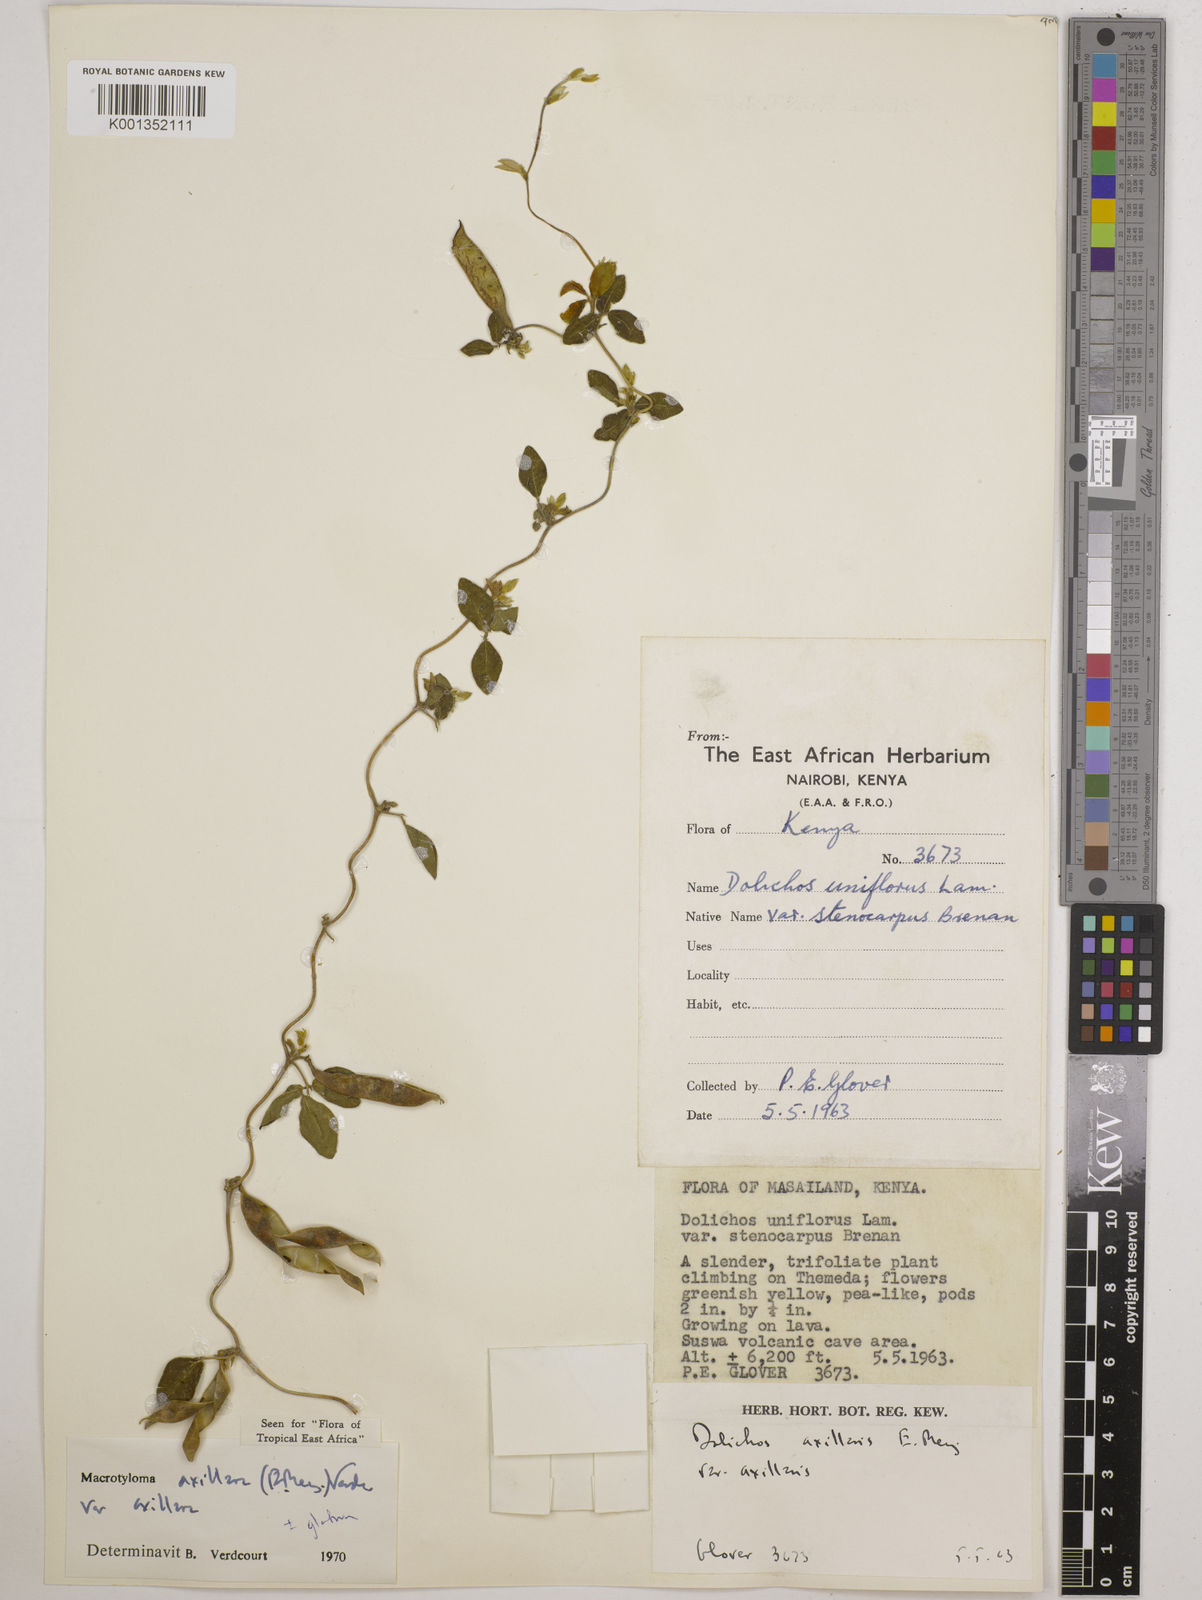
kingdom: Plantae
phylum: Tracheophyta
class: Magnoliopsida
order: Fabales
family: Fabaceae
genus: Macrotyloma
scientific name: Macrotyloma axillare
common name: Perennial horsegram
